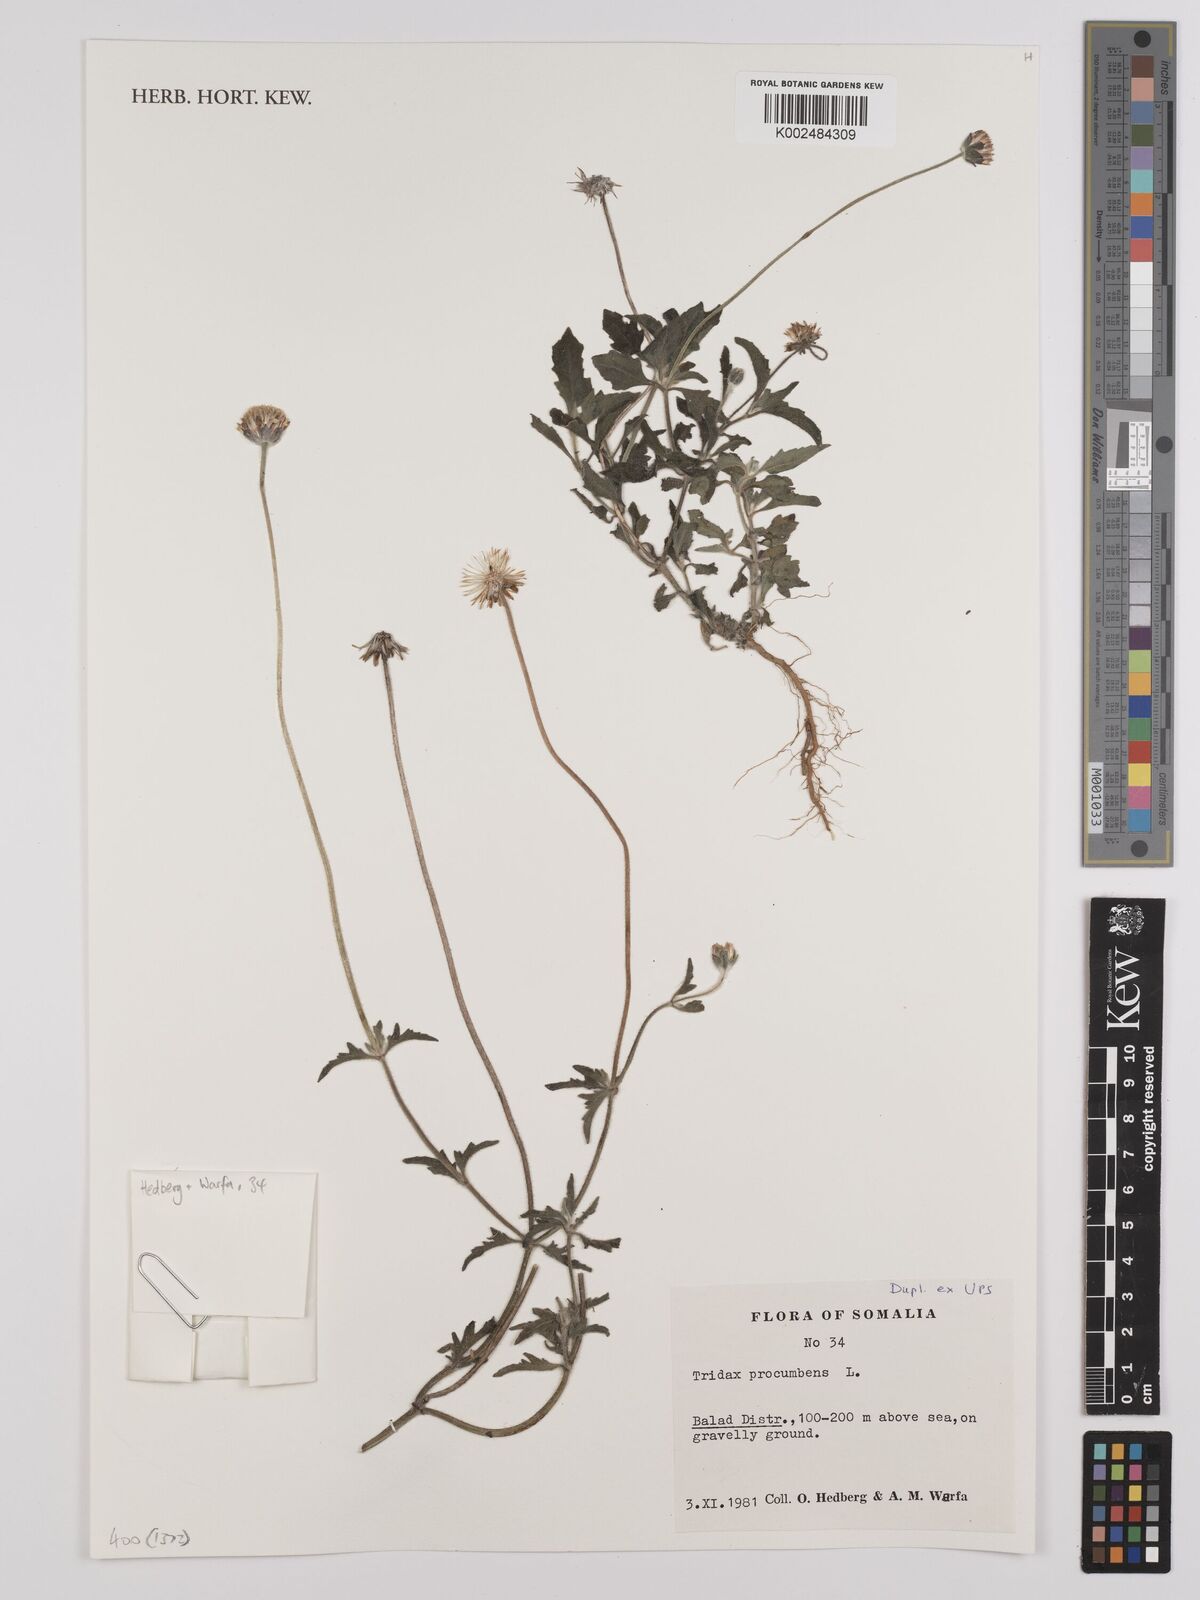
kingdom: Plantae
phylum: Tracheophyta
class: Magnoliopsida
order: Asterales
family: Asteraceae
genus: Tridax
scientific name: Tridax procumbens
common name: Coatbuttons
